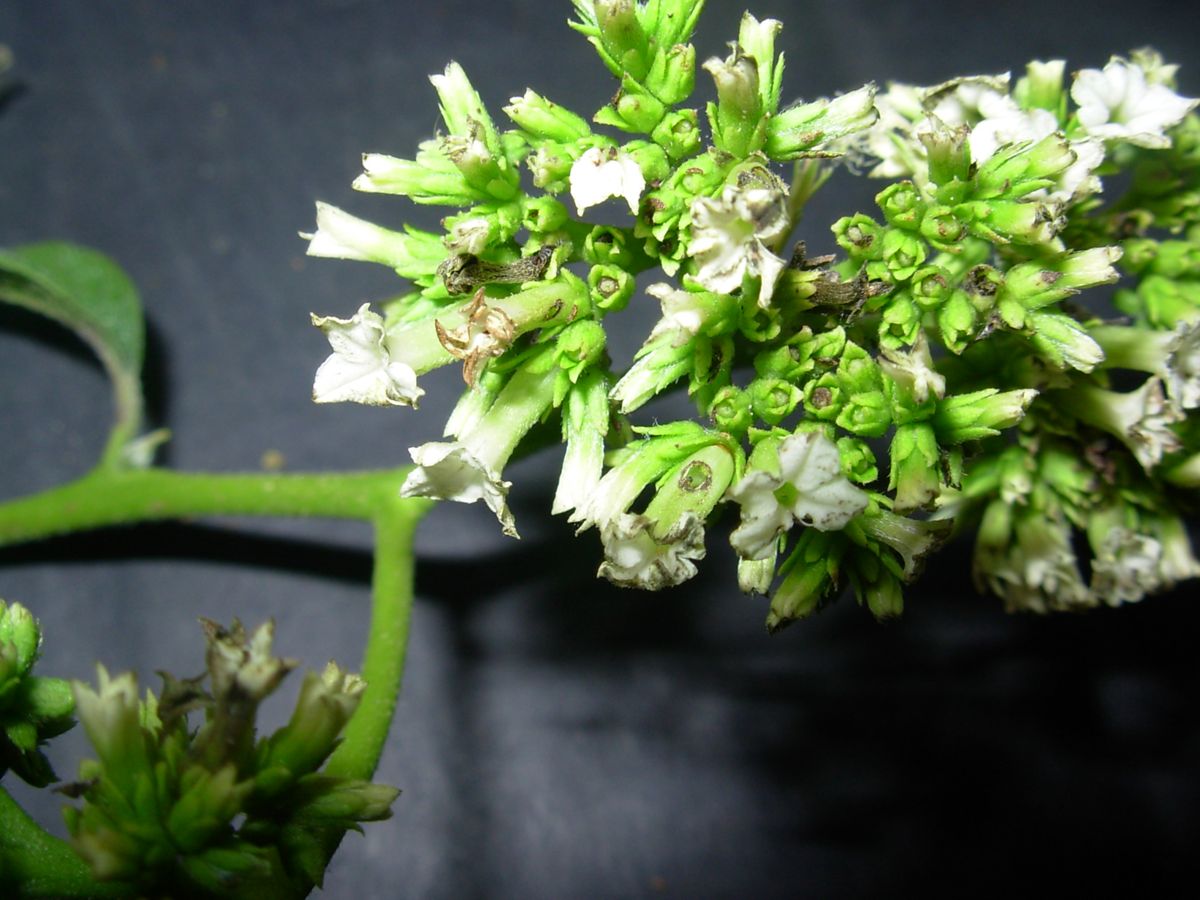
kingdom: Plantae
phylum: Tracheophyta
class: Magnoliopsida
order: Boraginales
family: Heliotropiaceae
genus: Heliotropium
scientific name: Heliotropium verdcourtii
